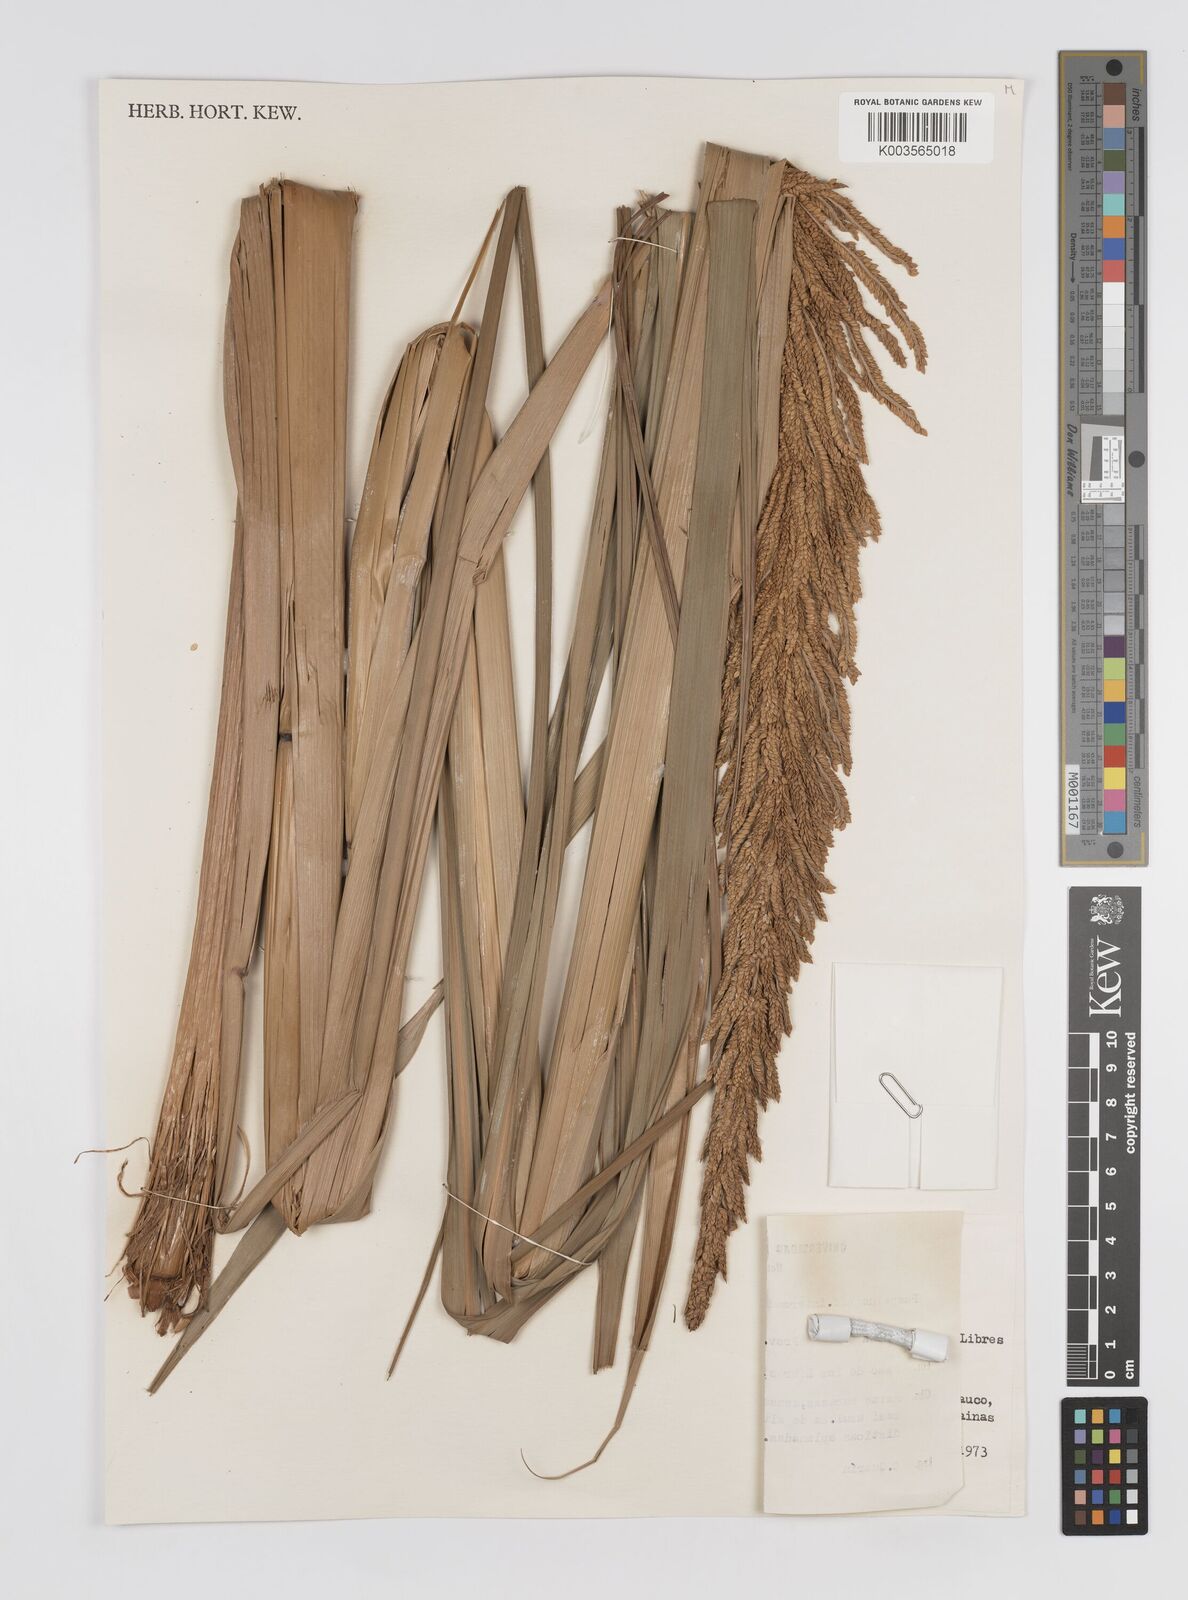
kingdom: Plantae
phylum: Tracheophyta
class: Liliopsida
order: Poales
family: Poaceae
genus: Paspalum
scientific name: Paspalum intermedium
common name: Intermediate paspalum
